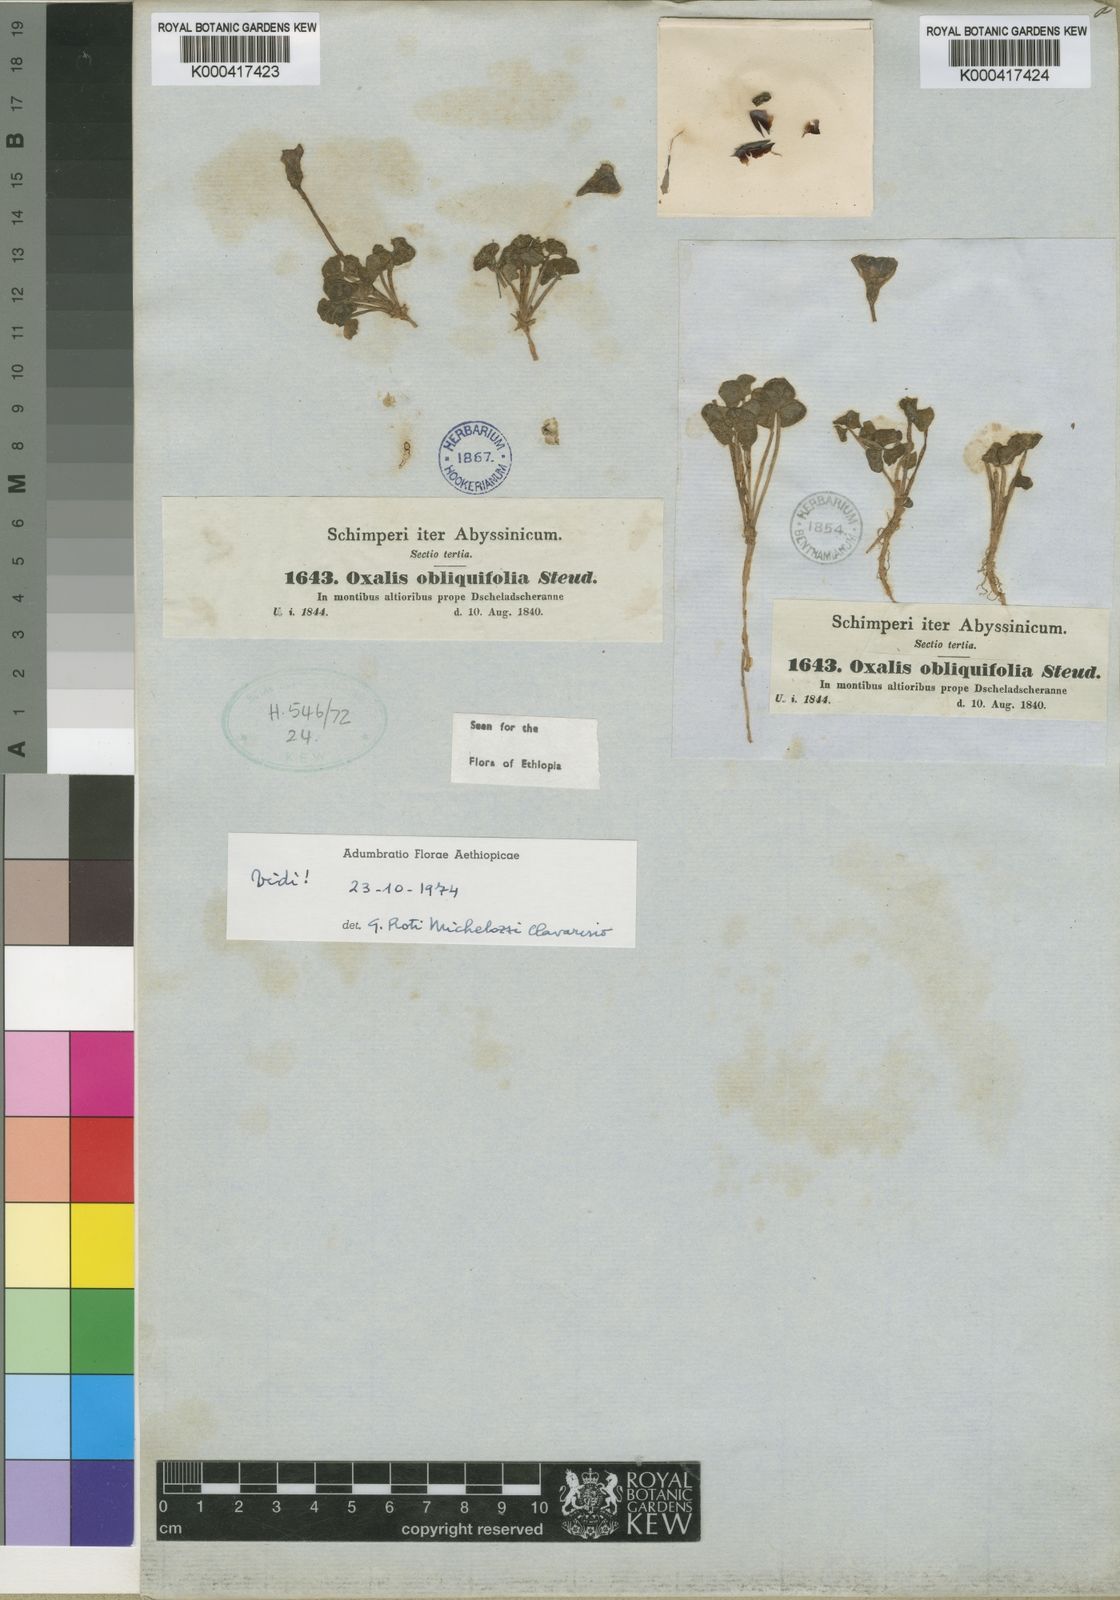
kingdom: Plantae
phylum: Tracheophyta
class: Magnoliopsida
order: Oxalidales
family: Oxalidaceae
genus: Oxalis
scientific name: Oxalis obliquifolia
